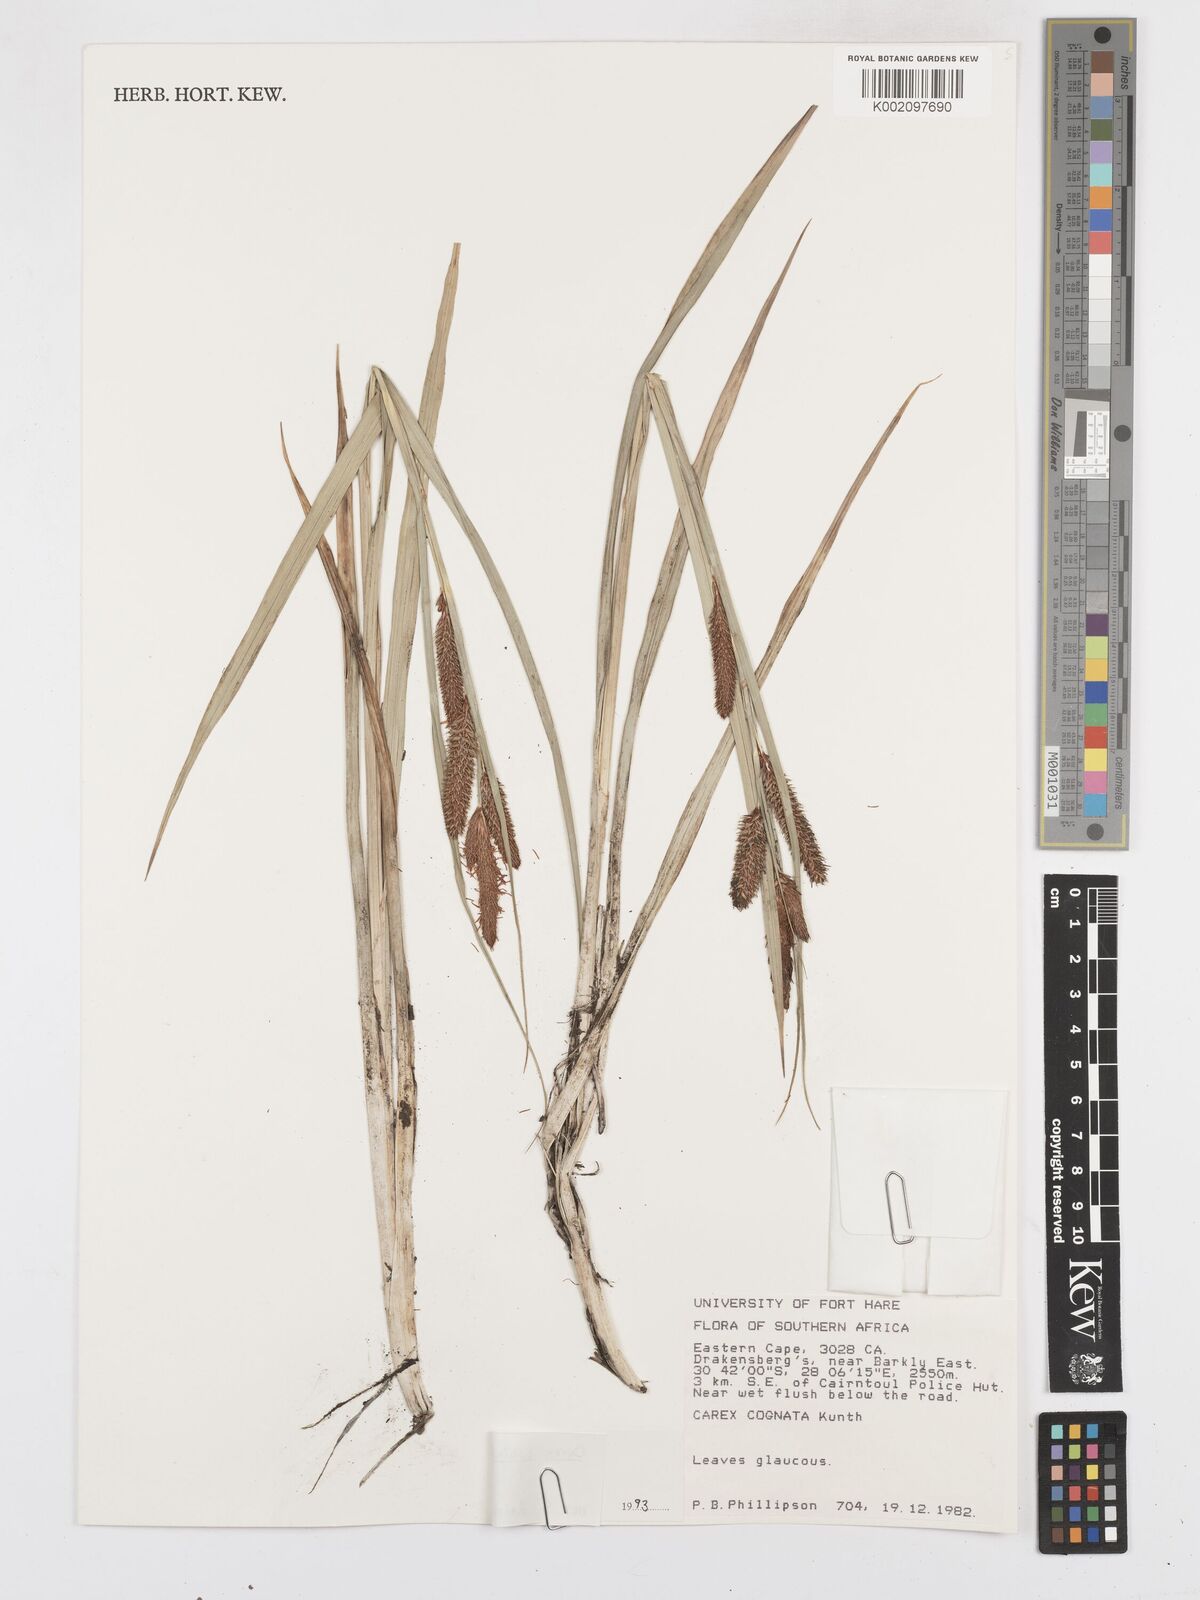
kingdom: Plantae
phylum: Tracheophyta
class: Liliopsida
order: Poales
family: Cyperaceae
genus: Carex
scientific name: Carex subinflata
